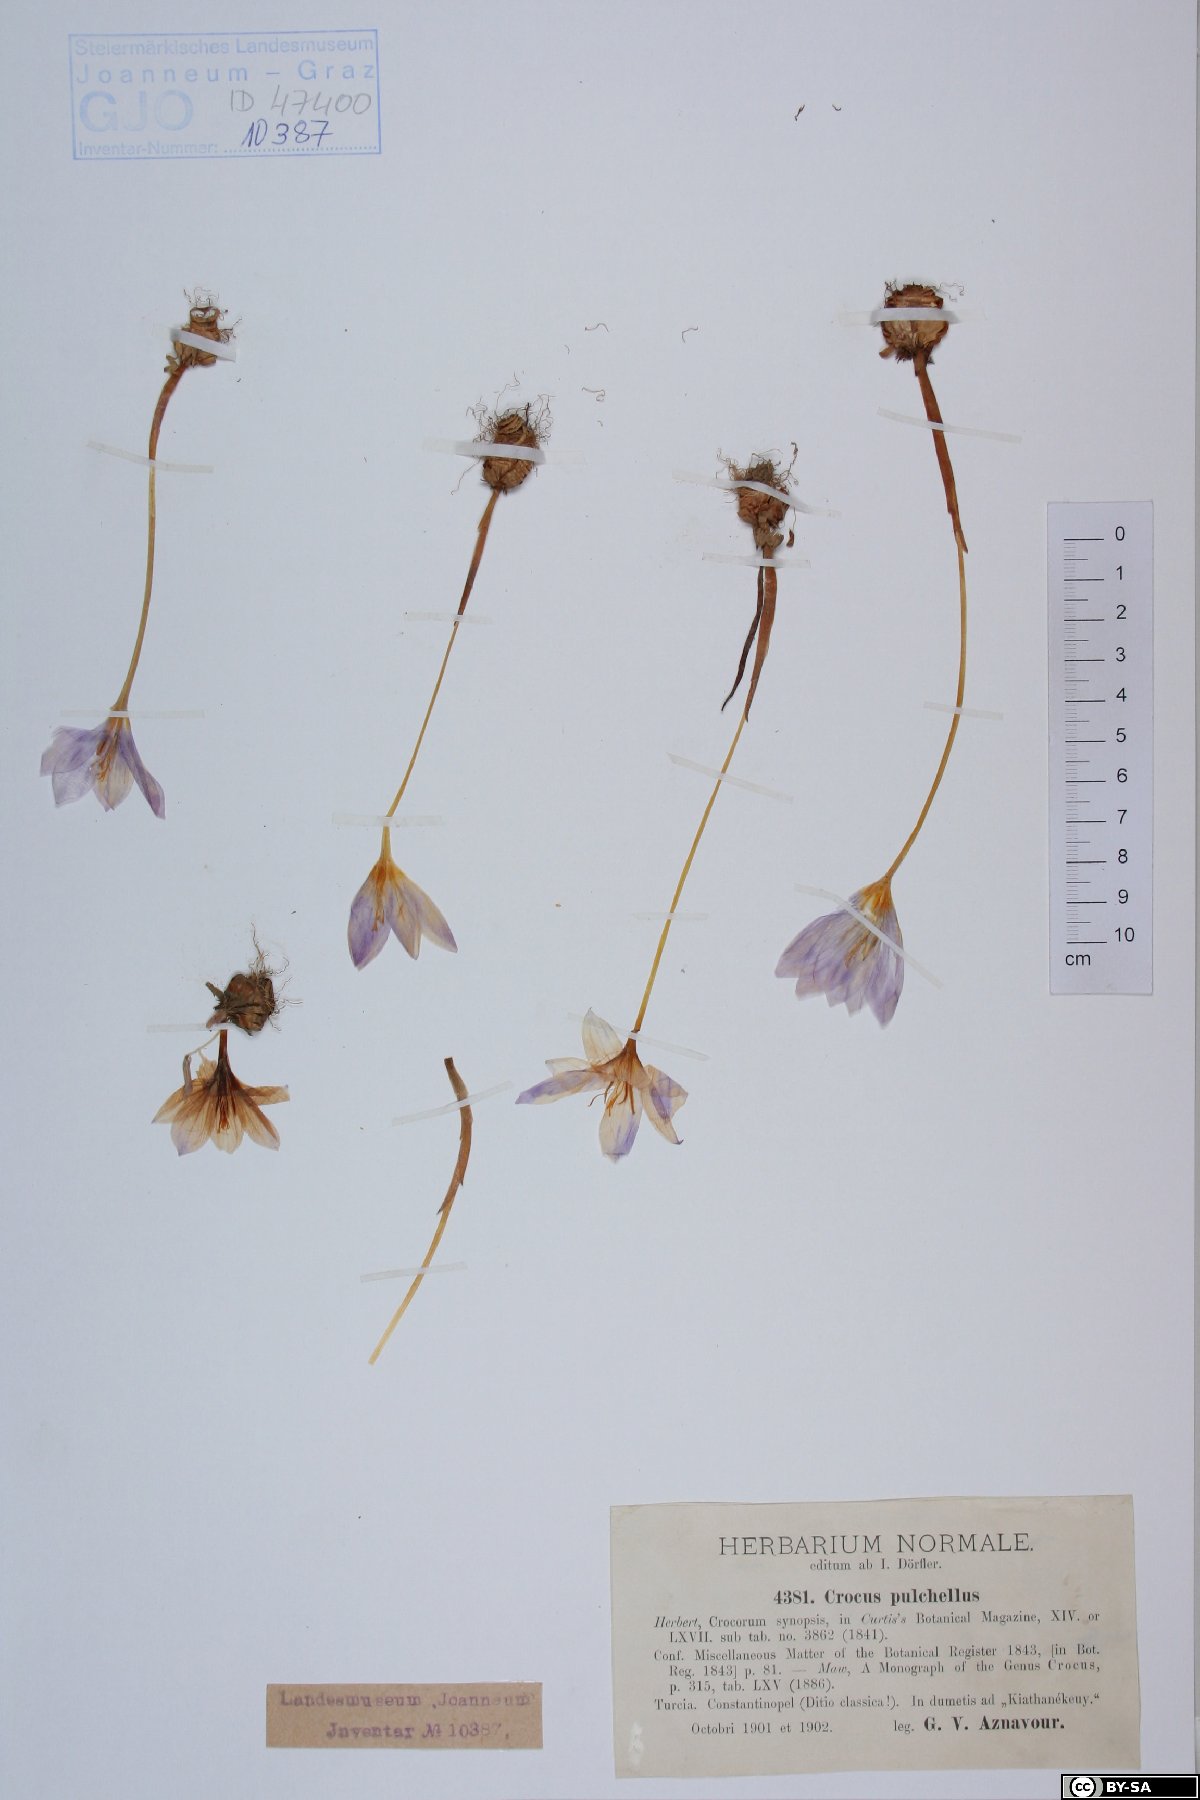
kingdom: Plantae
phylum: Tracheophyta
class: Liliopsida
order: Asparagales
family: Iridaceae
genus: Crocus
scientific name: Crocus pulchellus
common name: Hairy crocus
